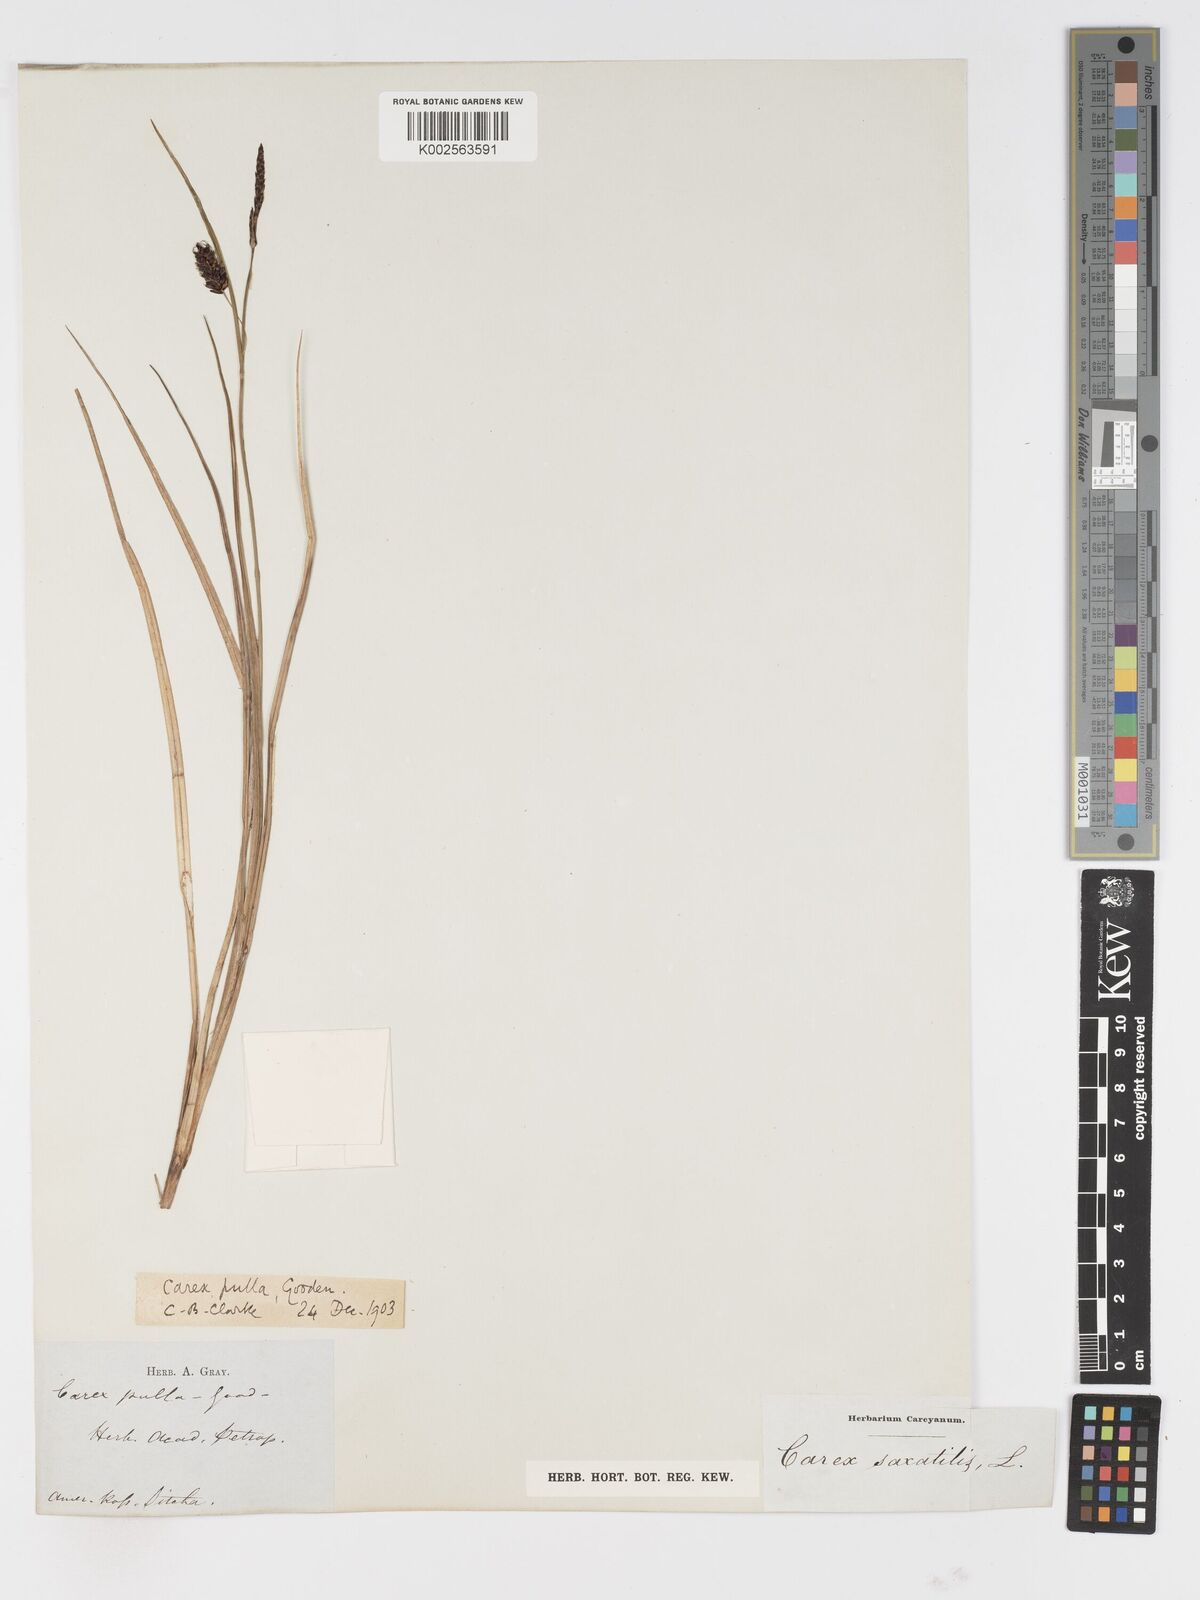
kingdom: Plantae
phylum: Tracheophyta
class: Liliopsida
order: Poales
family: Cyperaceae
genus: Carex
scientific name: Carex miliaris
